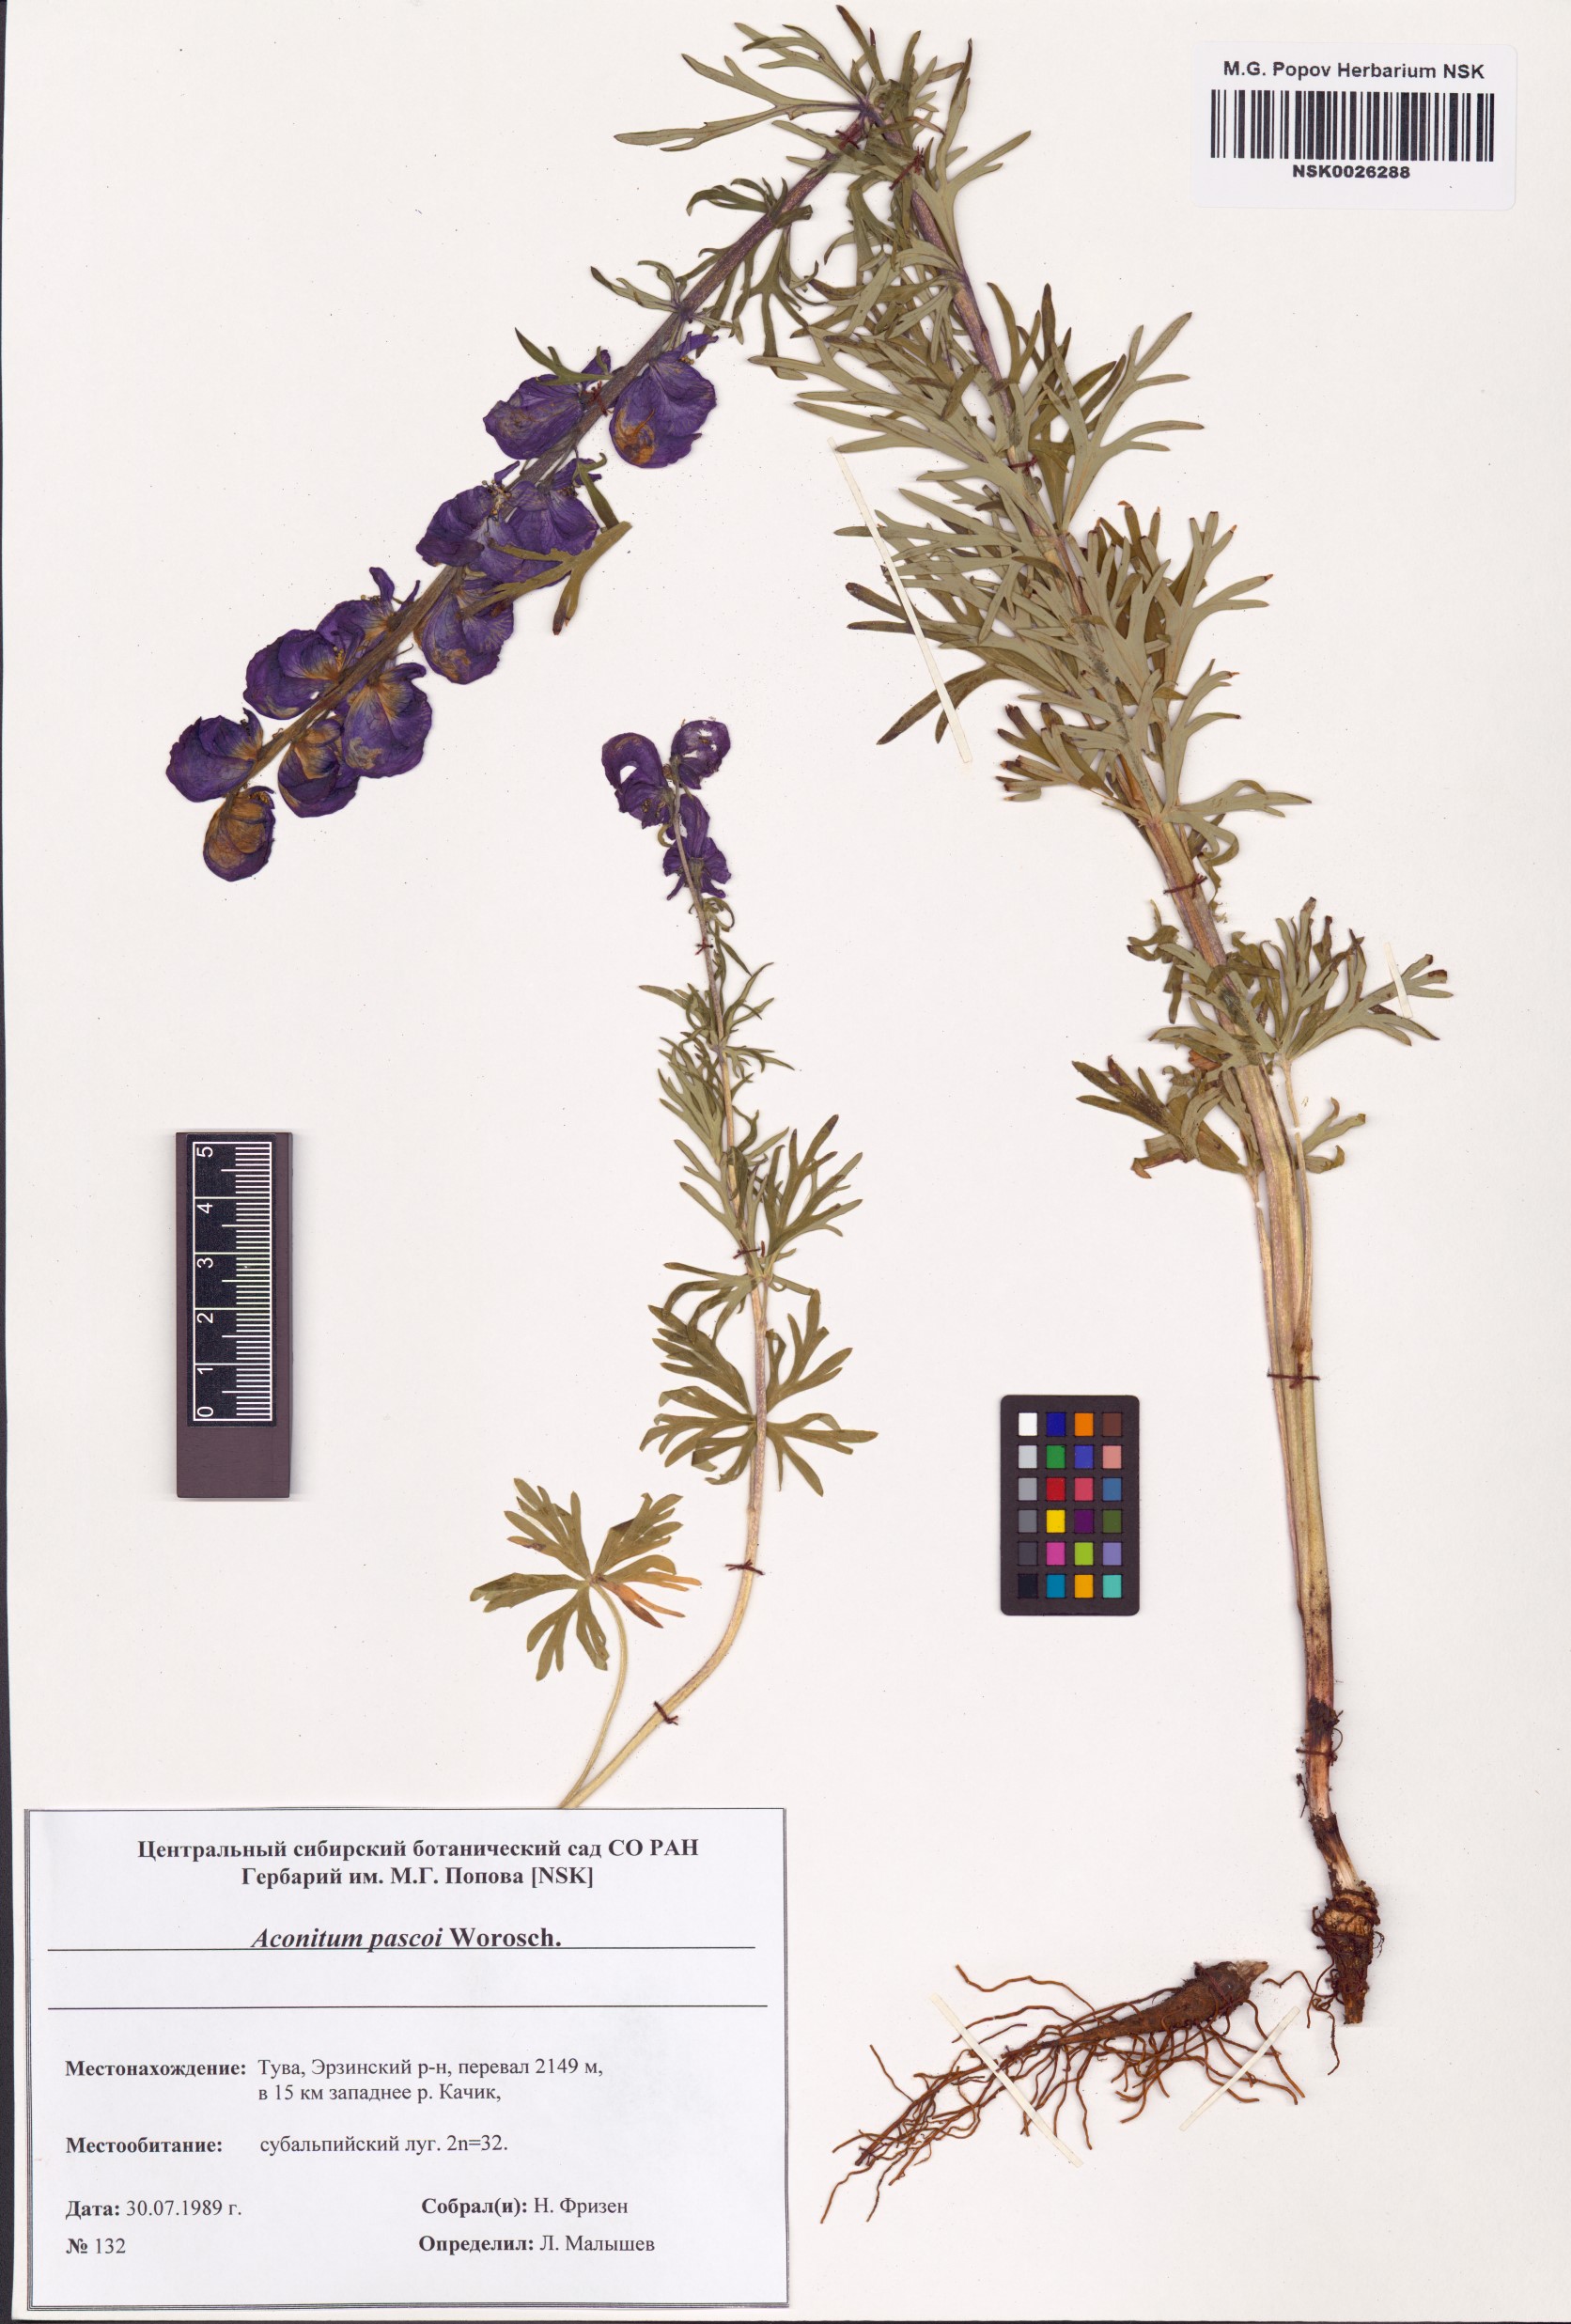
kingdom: Plantae
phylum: Tracheophyta
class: Magnoliopsida
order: Ranunculales
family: Ranunculaceae
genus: Aconitum
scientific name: Aconitum pascoi
